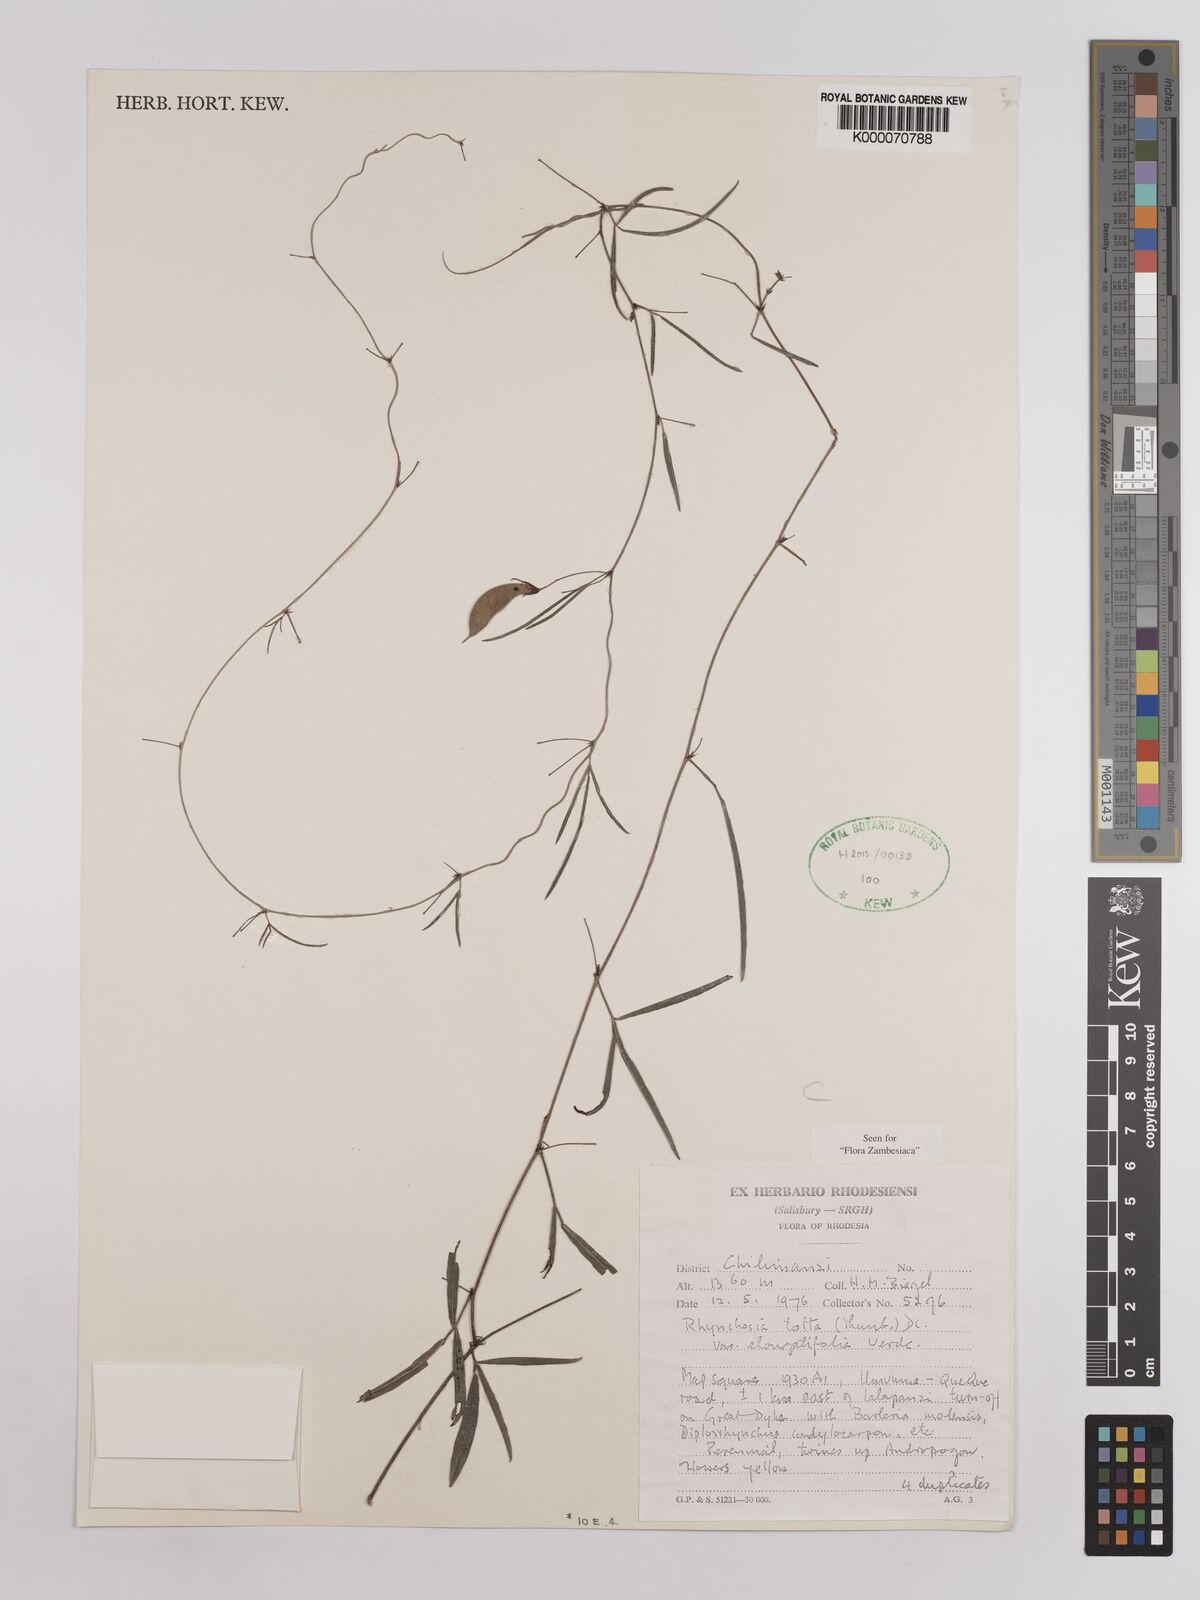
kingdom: Plantae
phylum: Tracheophyta
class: Magnoliopsida
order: Fabales
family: Fabaceae
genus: Rhynchosia
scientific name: Rhynchosia totta
